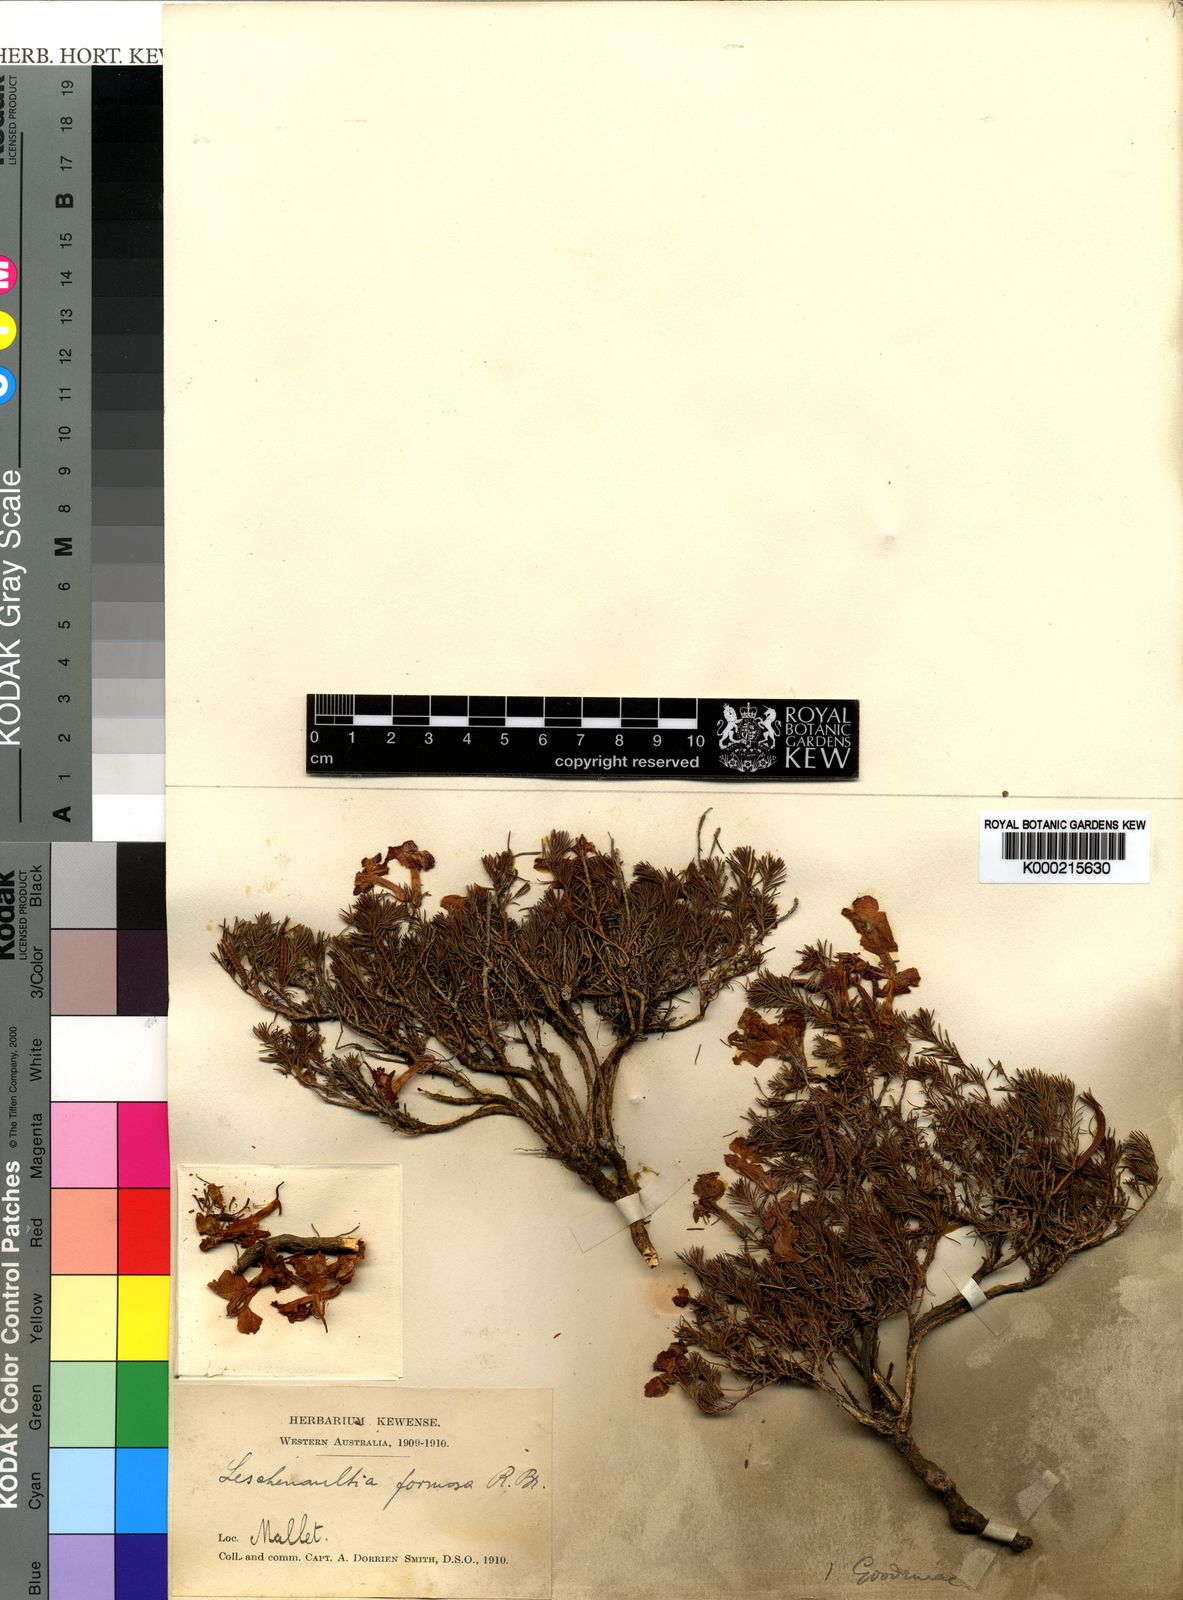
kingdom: Plantae
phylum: Tracheophyta
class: Magnoliopsida
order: Asterales
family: Goodeniaceae
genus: Leschenaultia
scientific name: Leschenaultia
